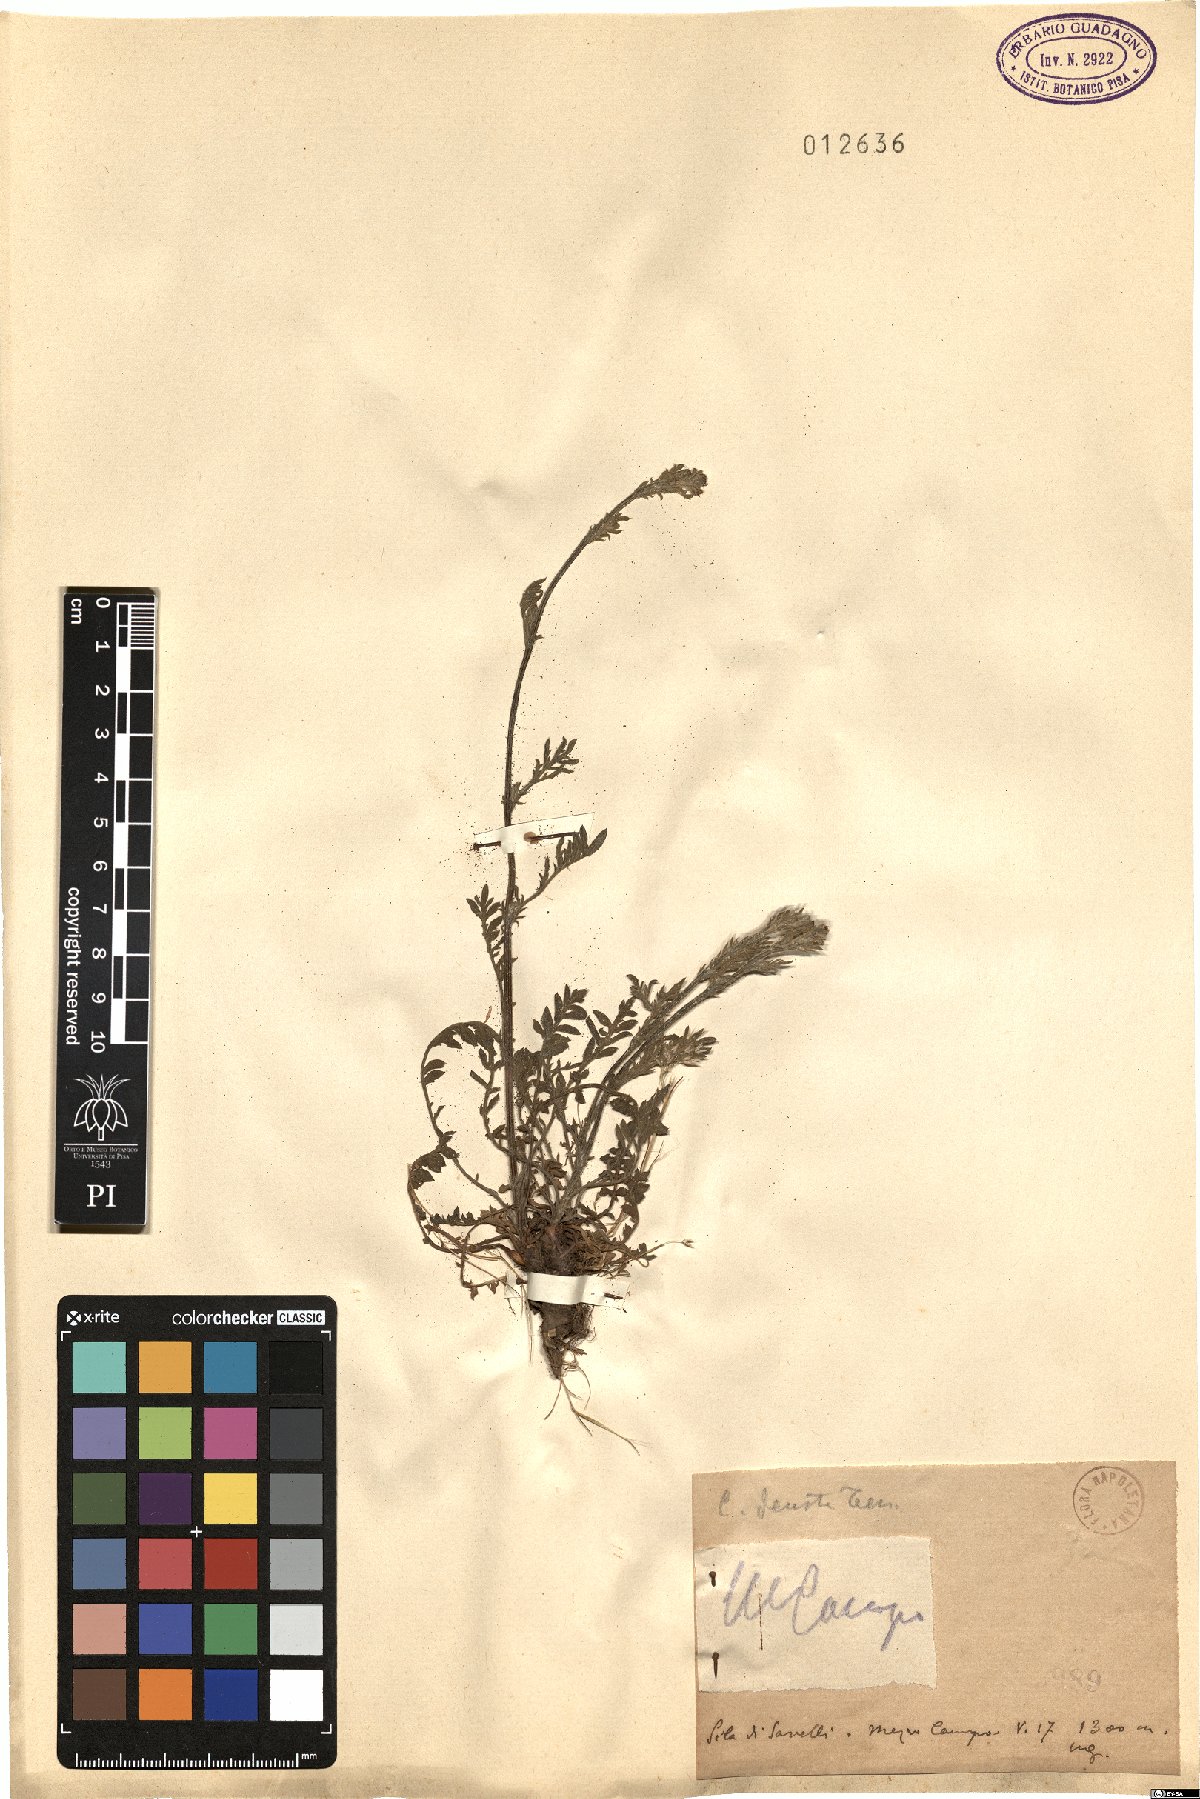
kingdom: Plantae
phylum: Tracheophyta
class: Magnoliopsida
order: Asterales
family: Asteraceae
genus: Centaurea
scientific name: Centaurea deusta
